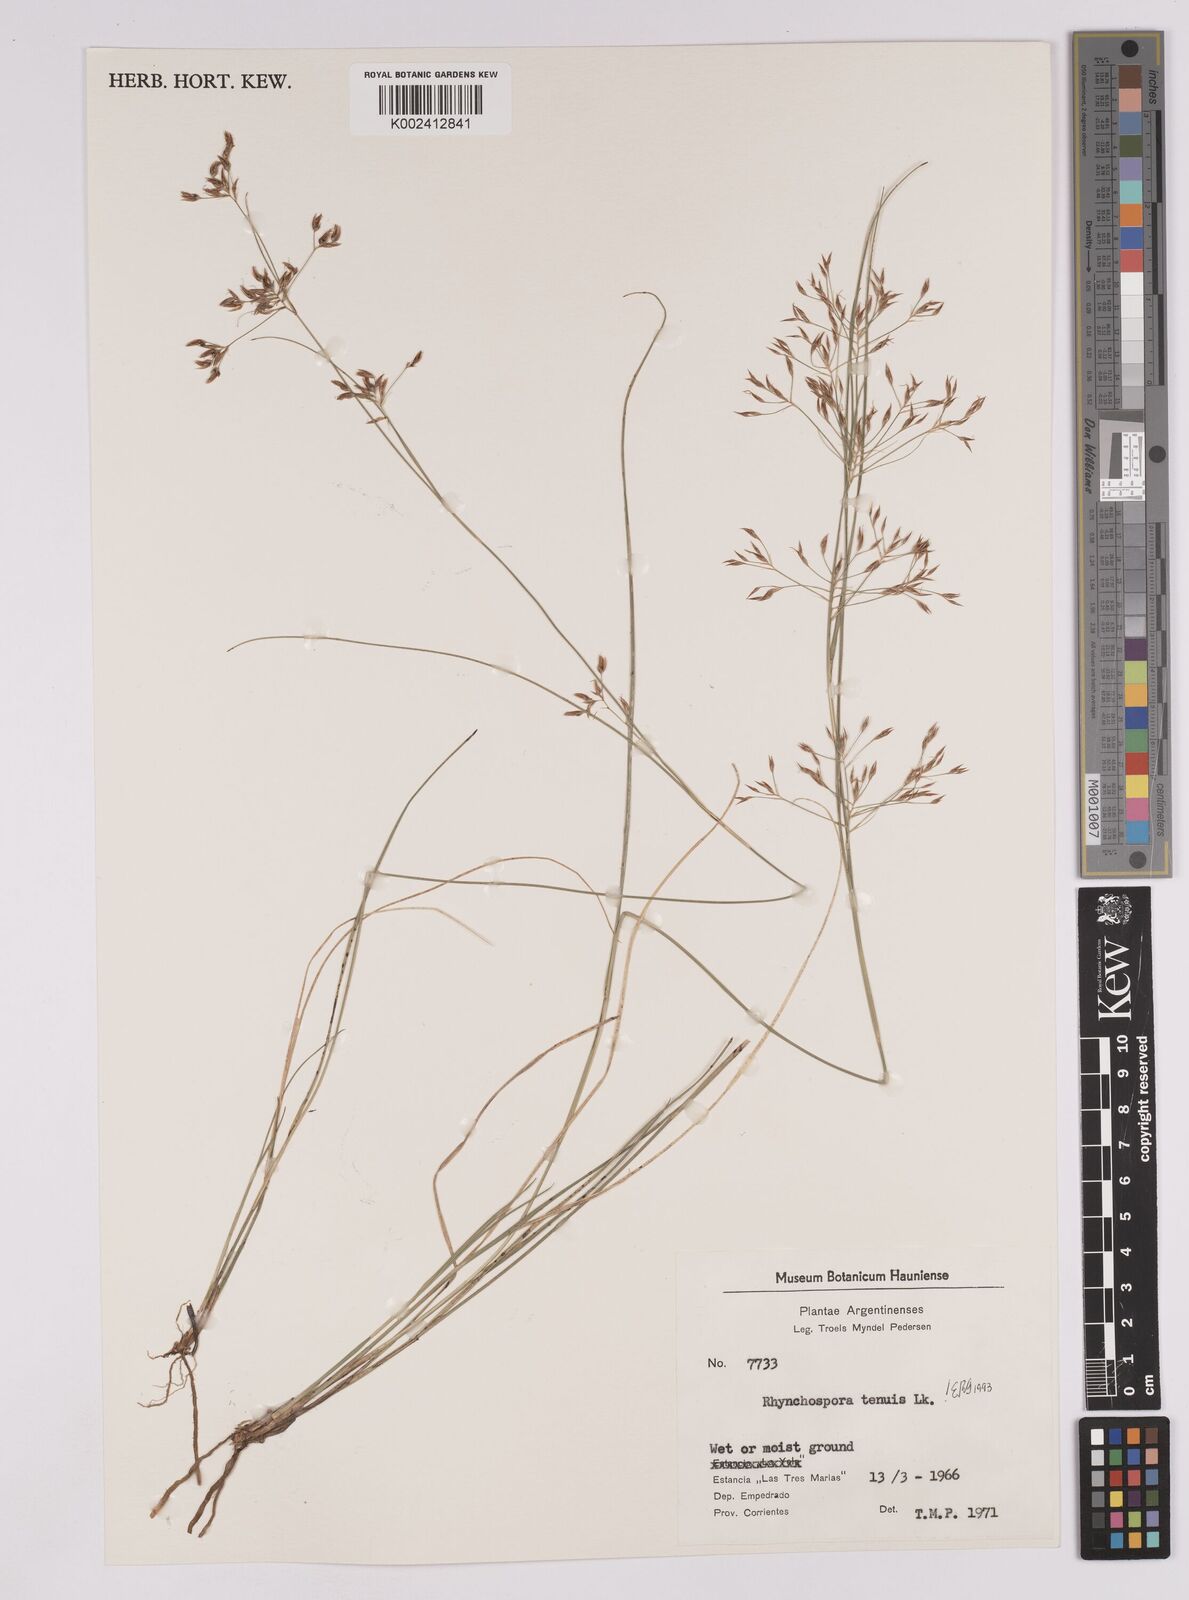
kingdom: Plantae
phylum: Tracheophyta
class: Liliopsida
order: Poales
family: Cyperaceae
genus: Rhynchospora
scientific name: Rhynchospora tenuis
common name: Quill beaksedge
